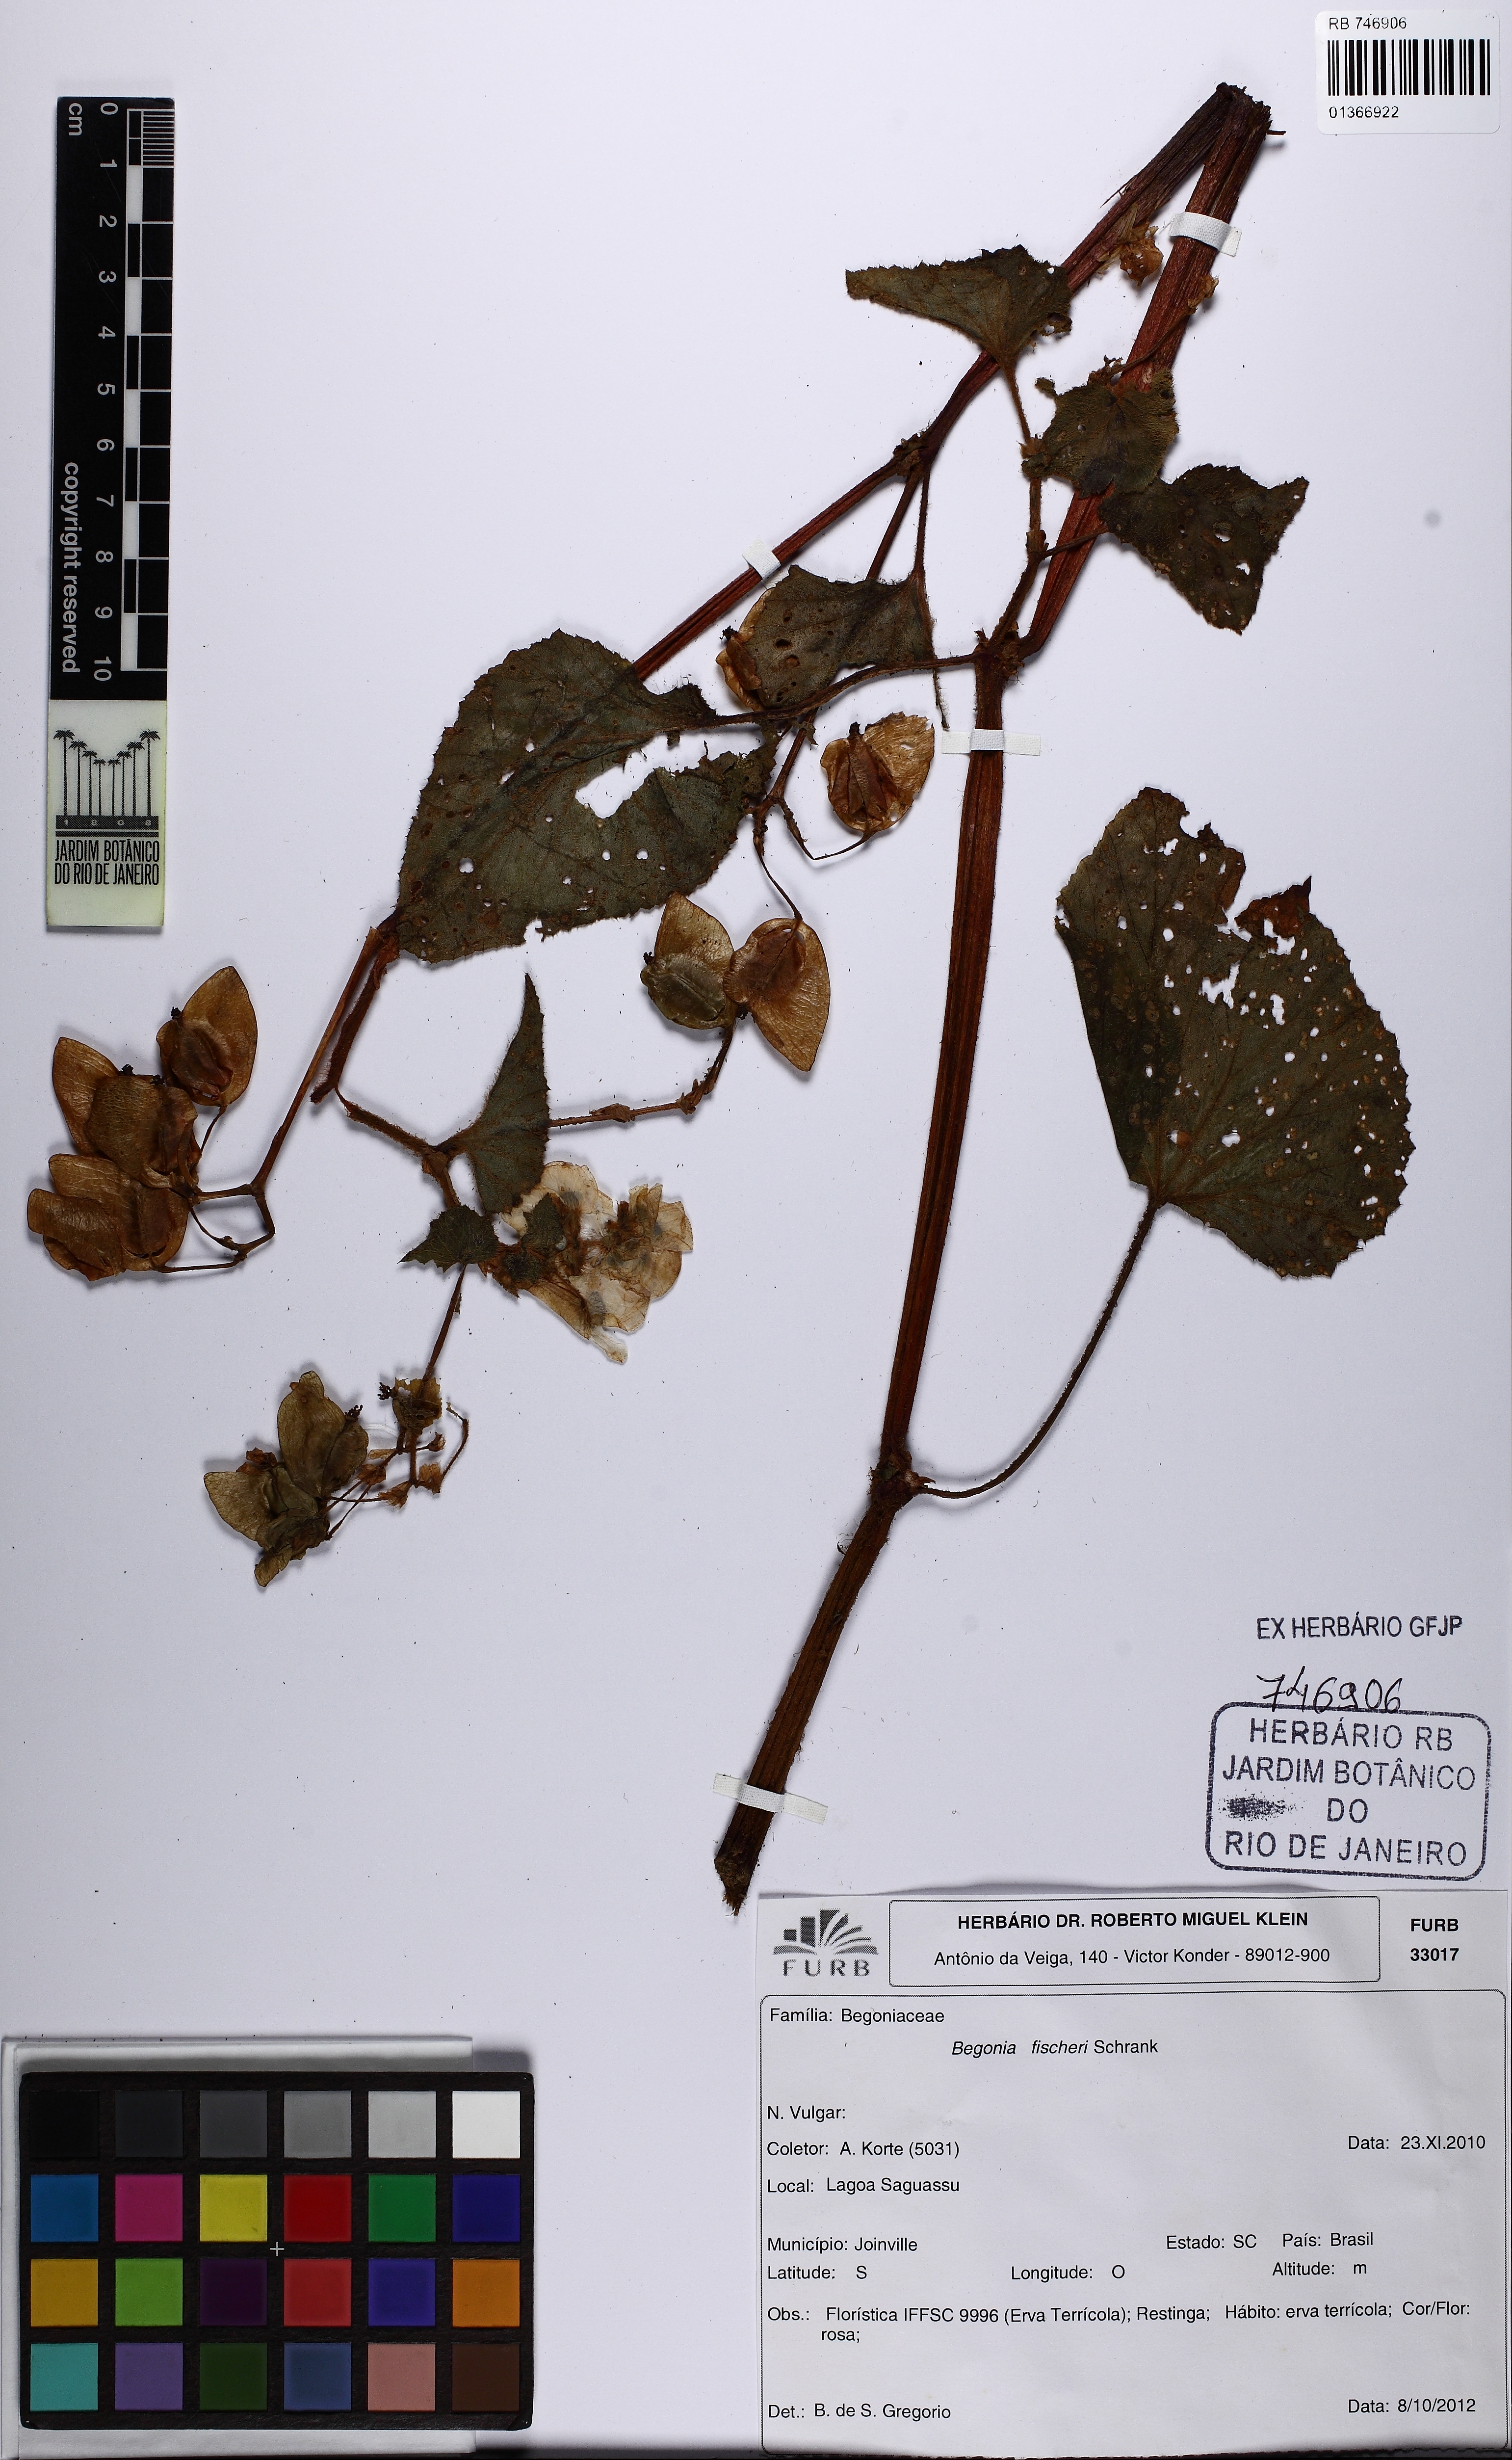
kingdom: Plantae
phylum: Tracheophyta
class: Magnoliopsida
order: Cucurbitales
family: Begoniaceae
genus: Begonia
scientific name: Begonia fischeri
